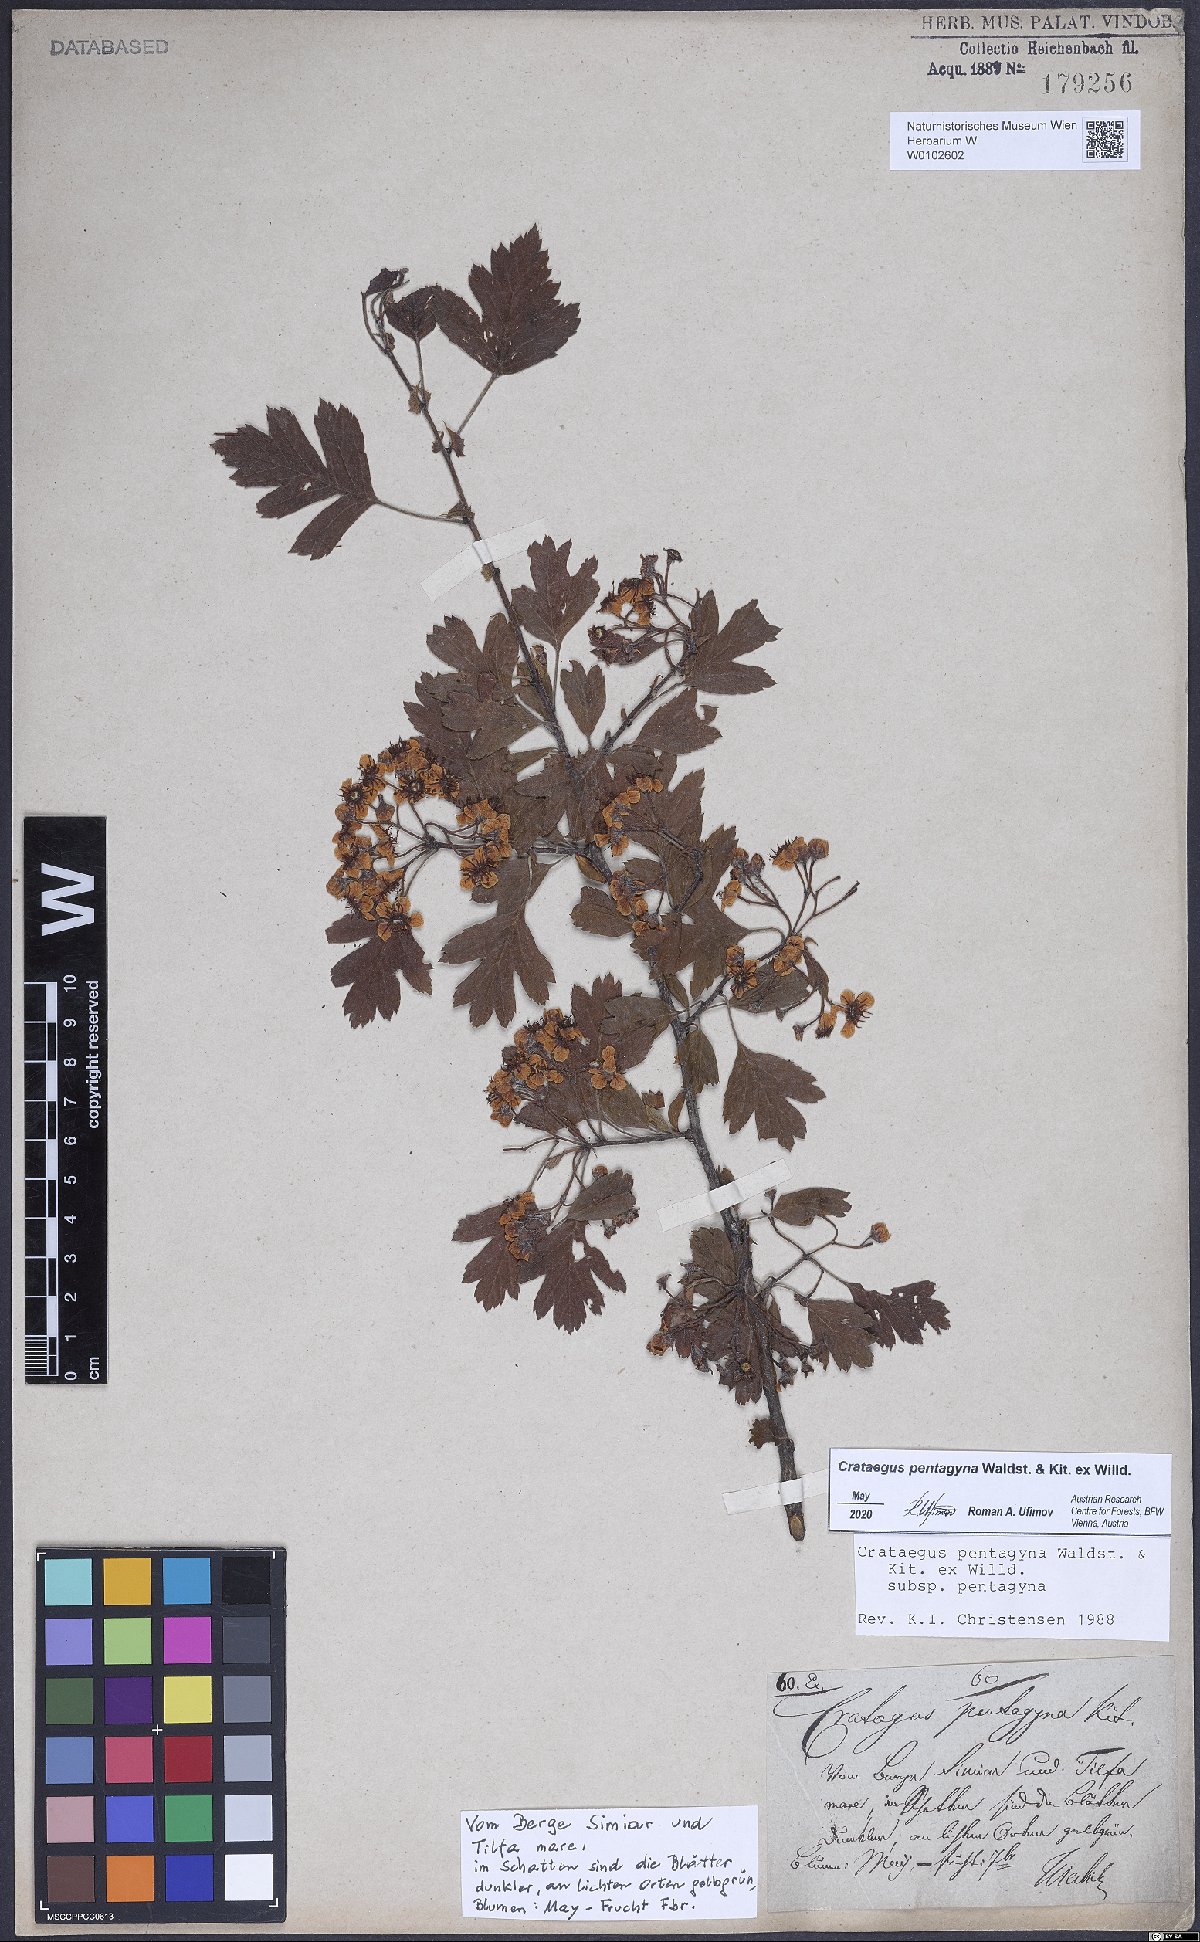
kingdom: Plantae
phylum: Tracheophyta
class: Magnoliopsida
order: Rosales
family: Rosaceae
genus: Crataegus
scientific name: Crataegus pentagyna
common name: Small-flowered black hawthorn
